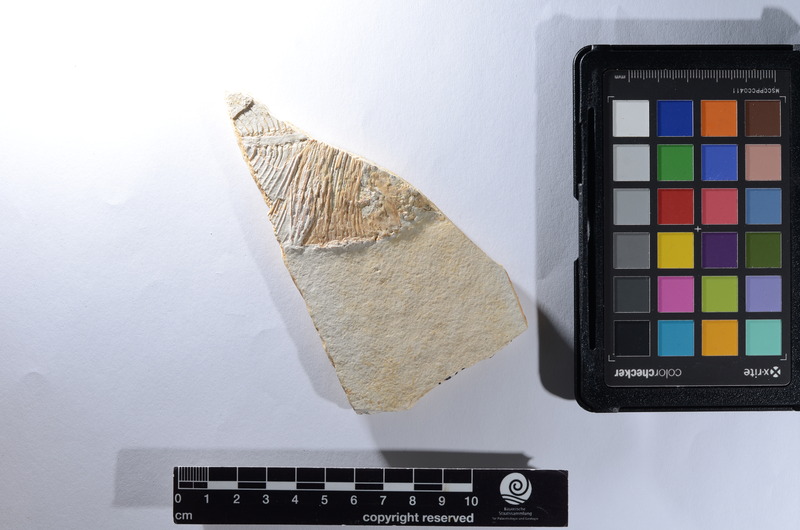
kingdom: Animalia
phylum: Chordata
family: Pycnodontes
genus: Macromesodon
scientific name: Macromesodon macropterus
